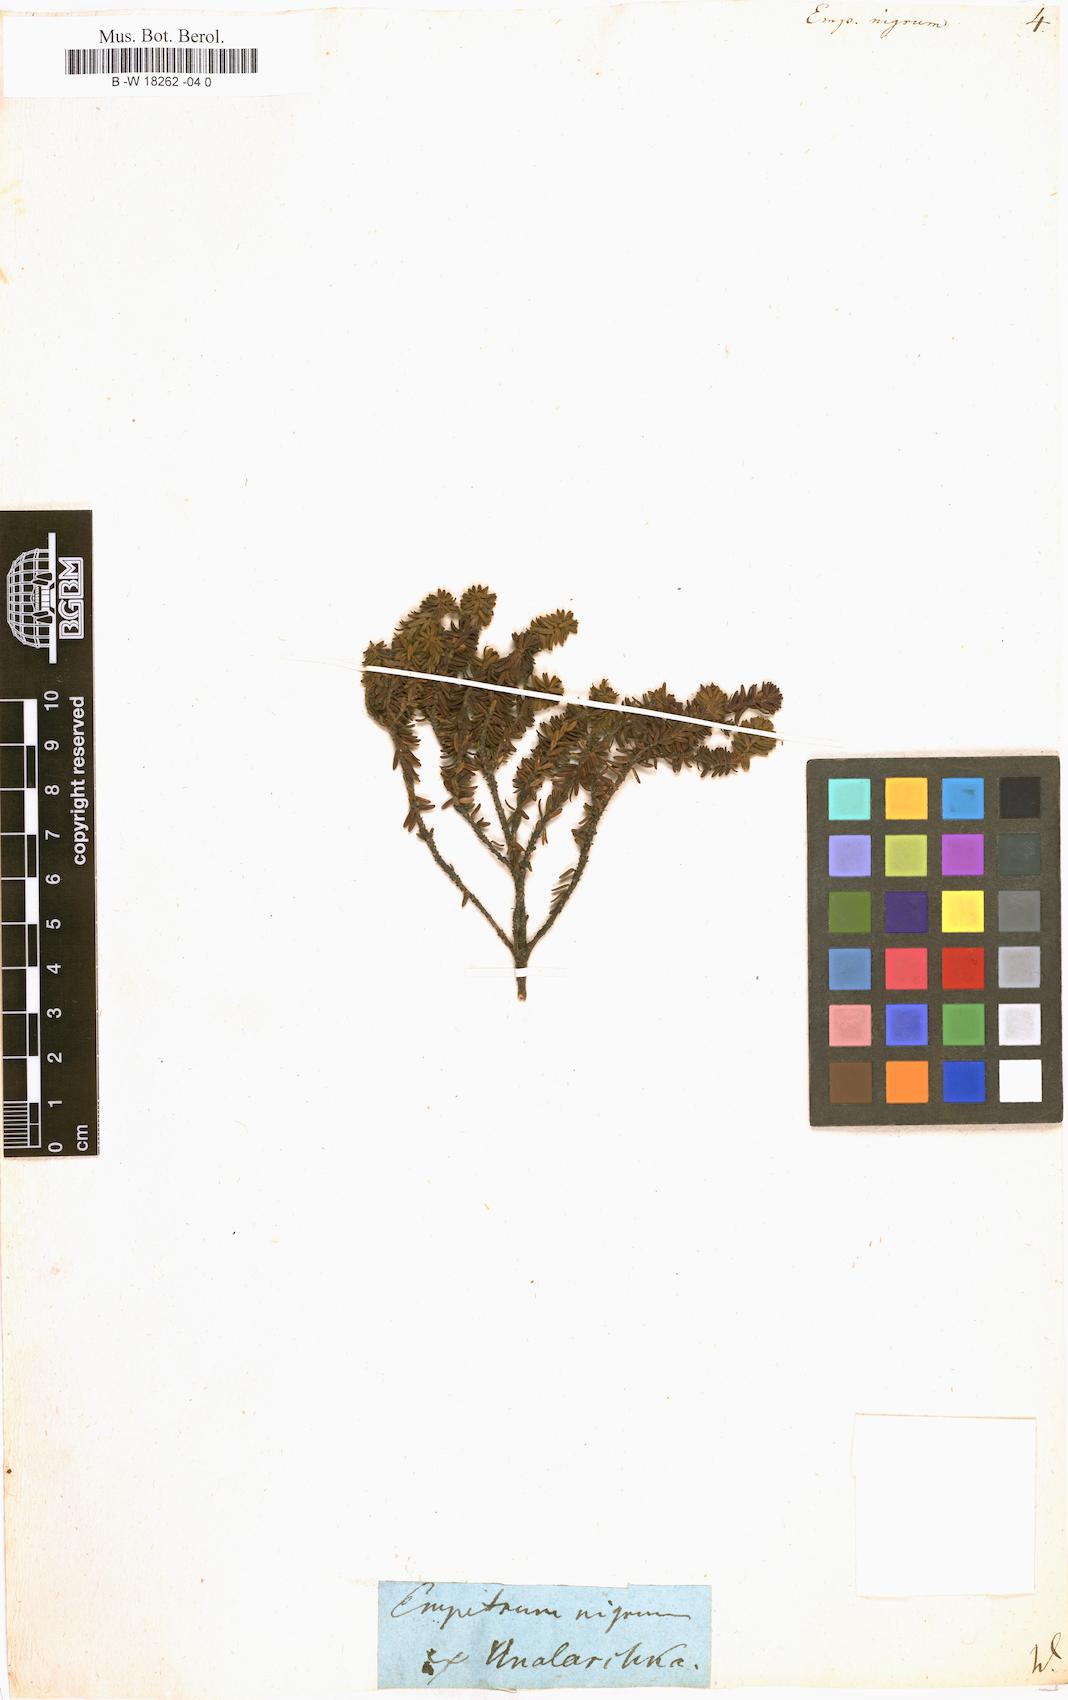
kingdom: Plantae
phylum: Tracheophyta
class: Magnoliopsida
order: Ericales
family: Ericaceae
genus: Empetrum
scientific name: Empetrum nigrum
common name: Black crowberry
